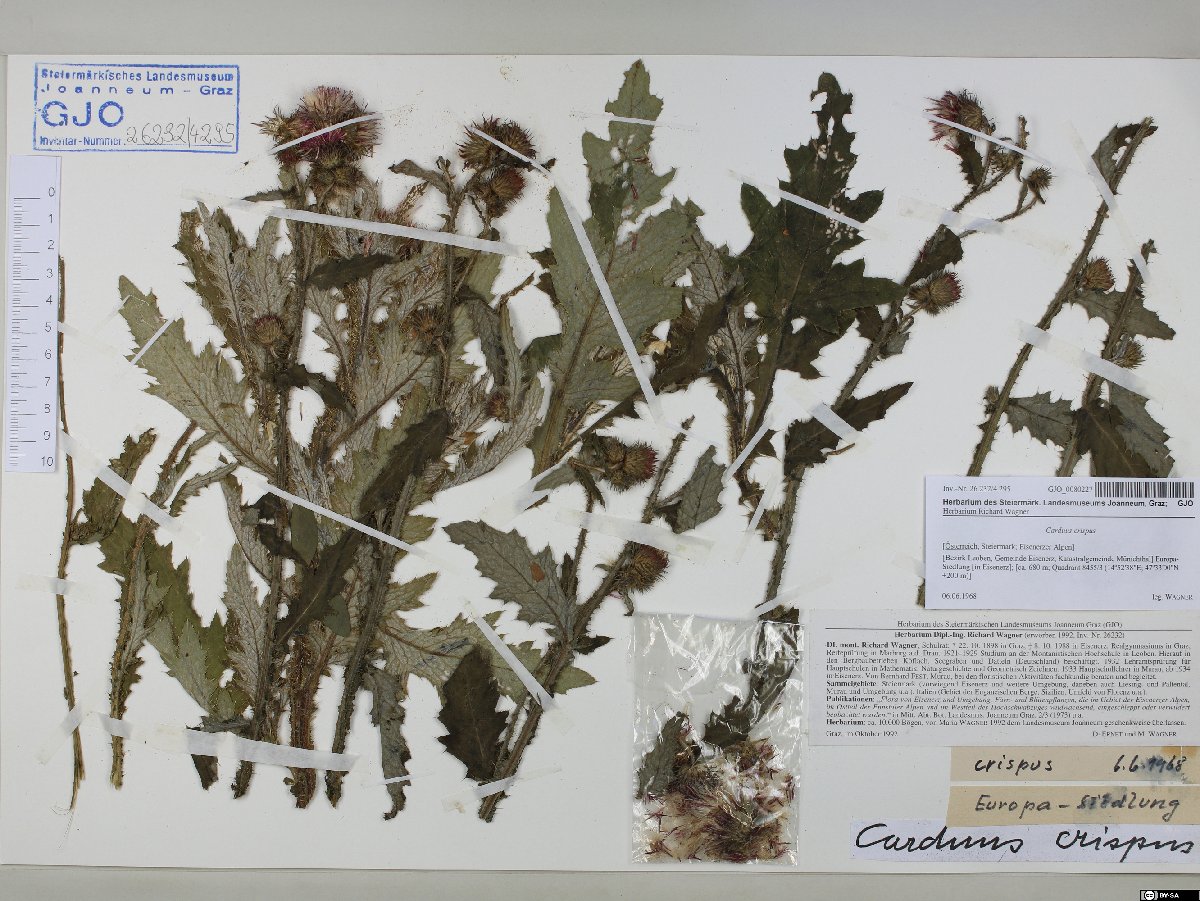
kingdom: Plantae
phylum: Tracheophyta
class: Magnoliopsida
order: Asterales
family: Asteraceae
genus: Carduus
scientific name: Carduus crispus
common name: Welted thistle
